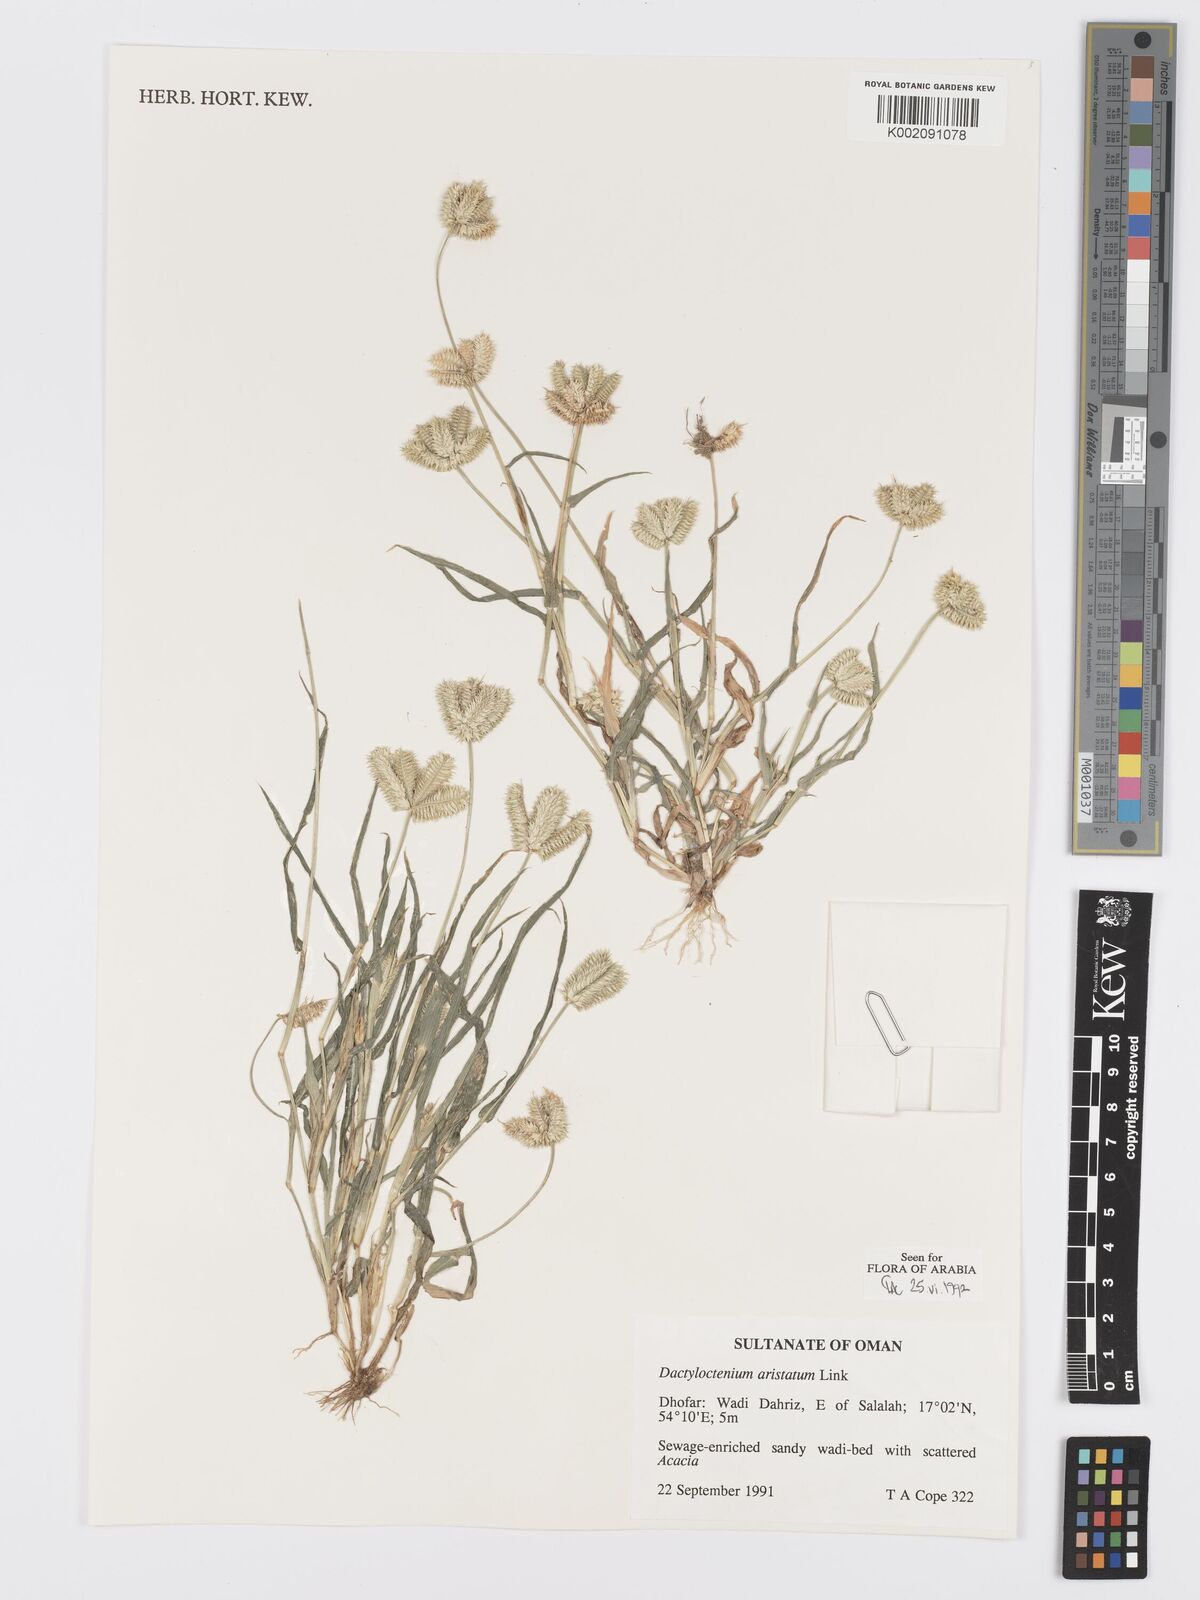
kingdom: Plantae
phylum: Tracheophyta
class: Liliopsida
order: Poales
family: Poaceae
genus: Dactyloctenium
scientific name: Dactyloctenium aristatum
